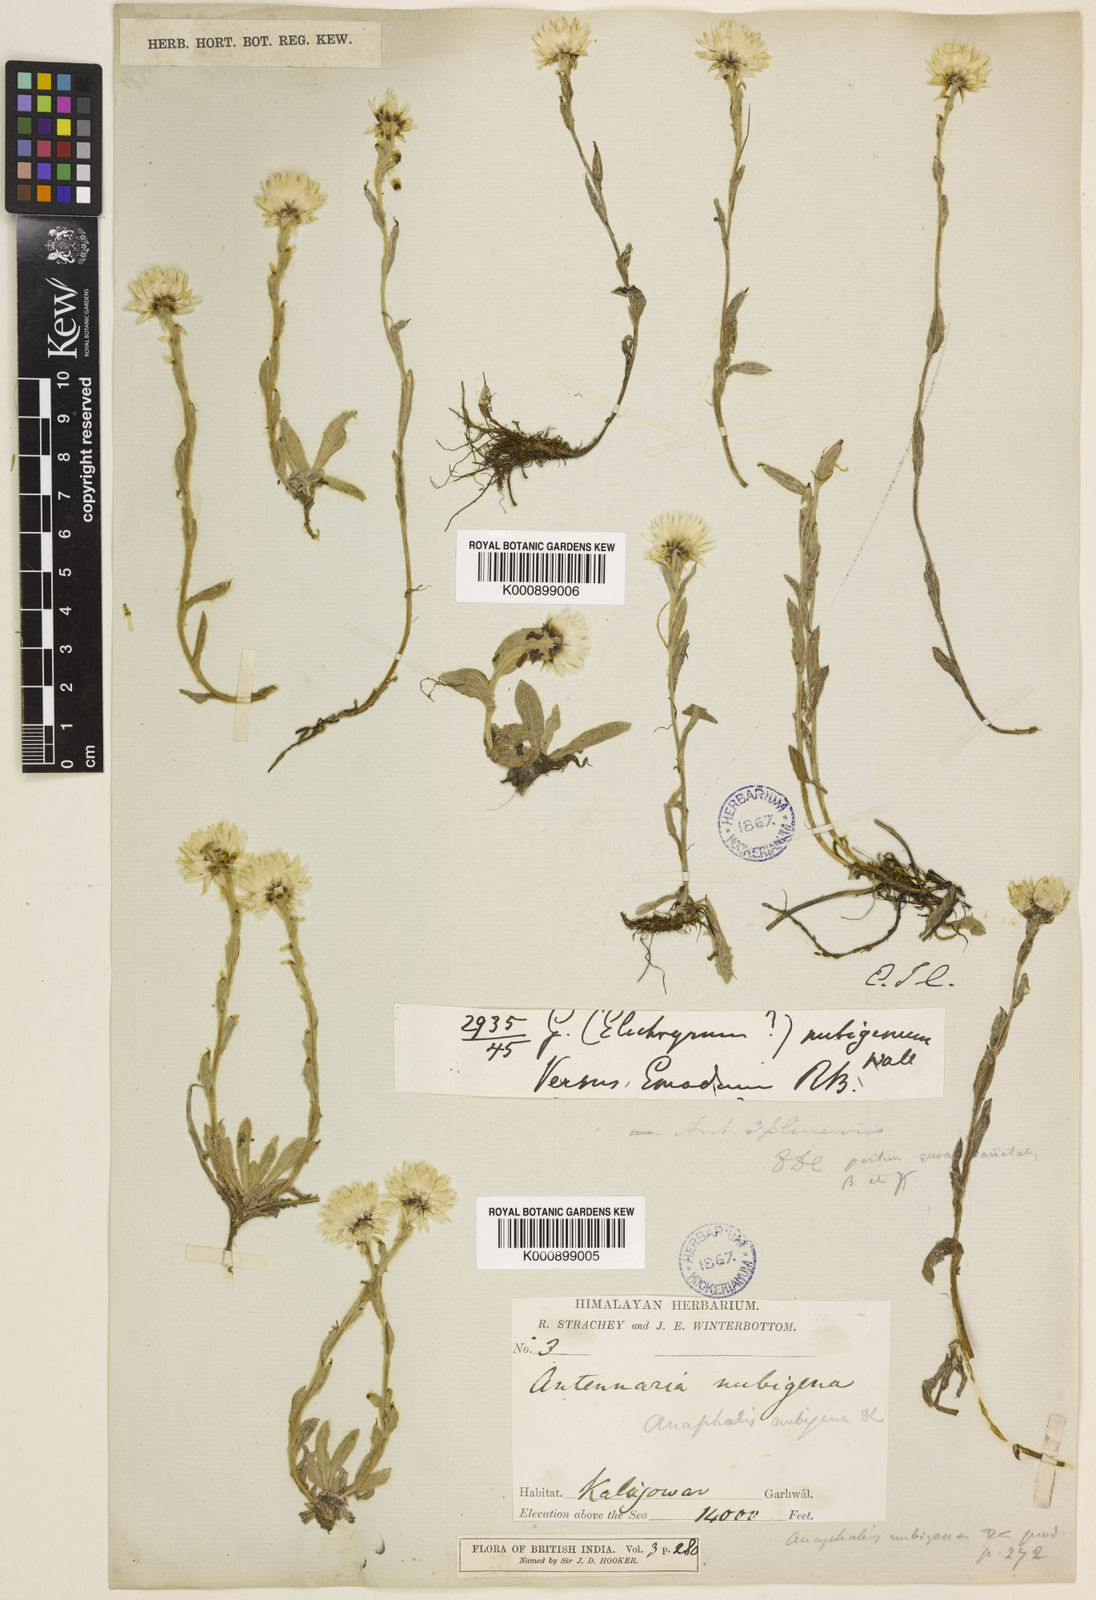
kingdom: Plantae
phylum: Tracheophyta
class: Magnoliopsida
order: Asterales
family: Asteraceae
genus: Anaphalis
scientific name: Anaphalis nepalensis
